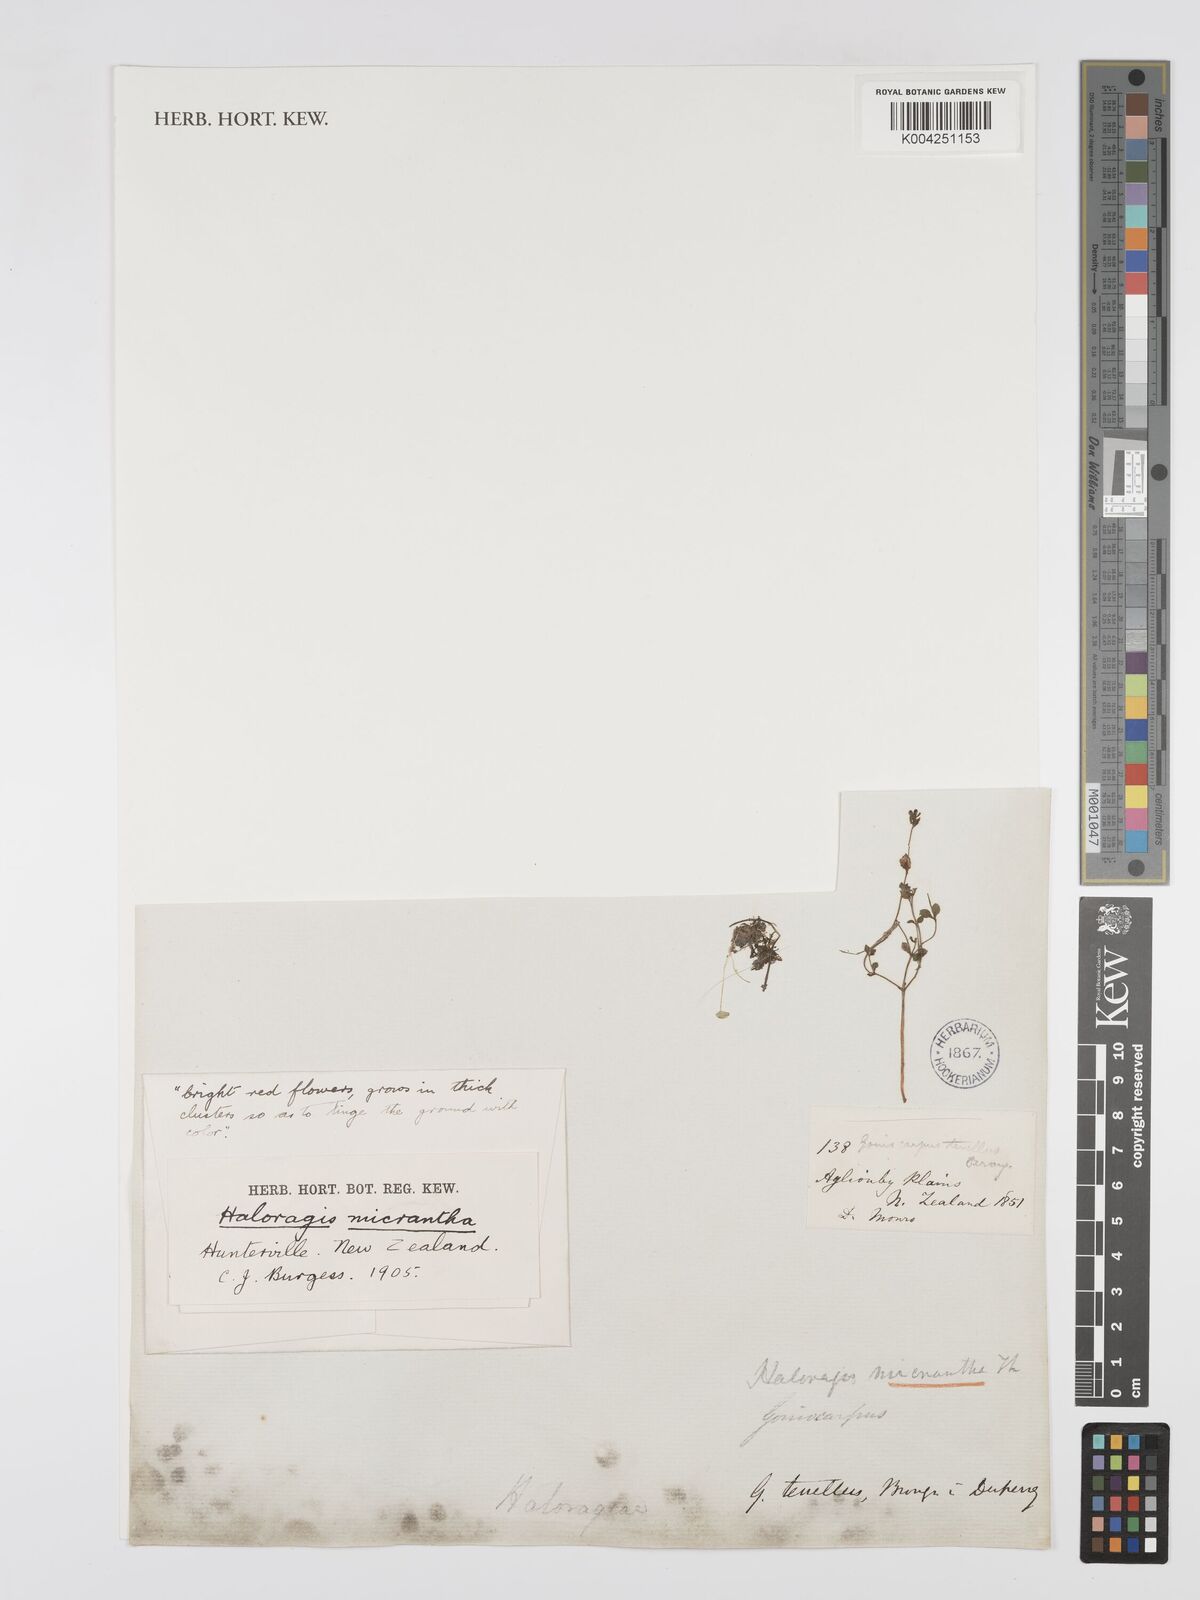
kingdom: Plantae
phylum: Tracheophyta
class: Magnoliopsida
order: Saxifragales
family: Haloragaceae
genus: Gonocarpus
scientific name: Gonocarpus
